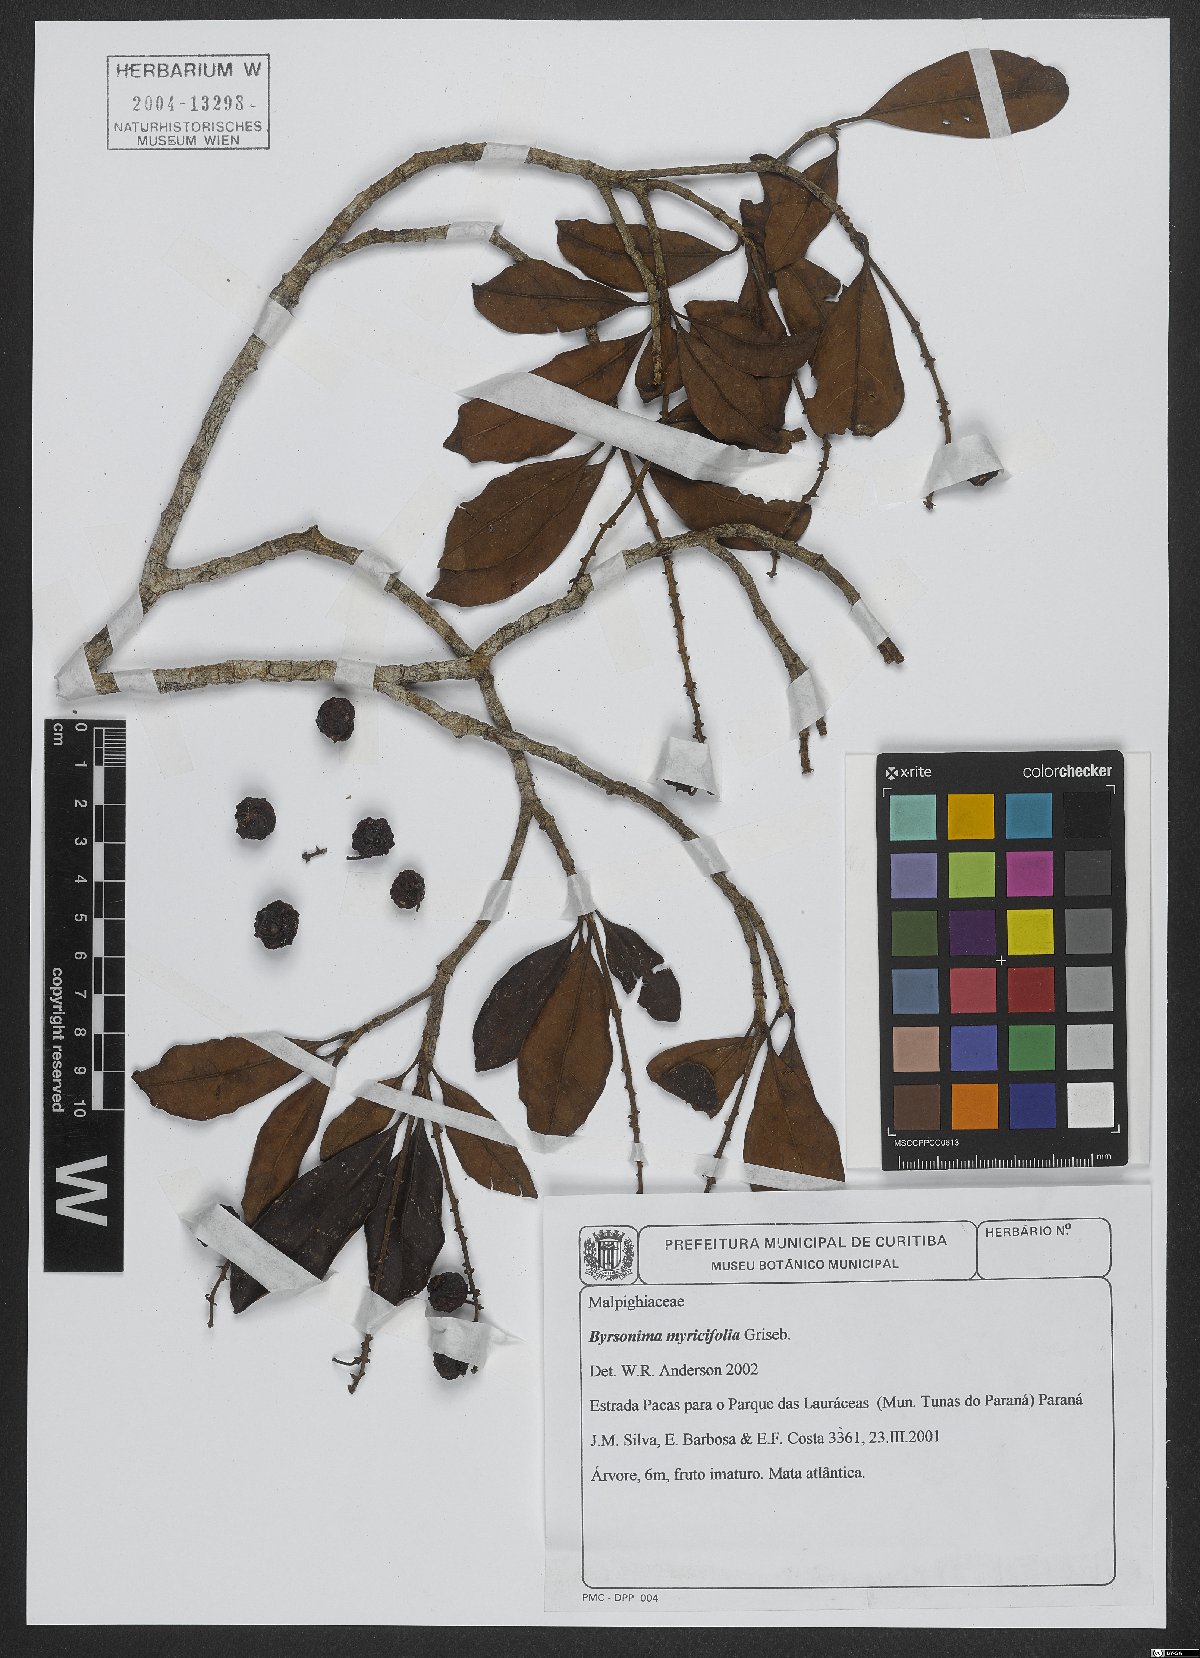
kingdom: Plantae
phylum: Tracheophyta
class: Magnoliopsida
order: Malpighiales
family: Malpighiaceae
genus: Byrsonima
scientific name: Byrsonima myricifolia
